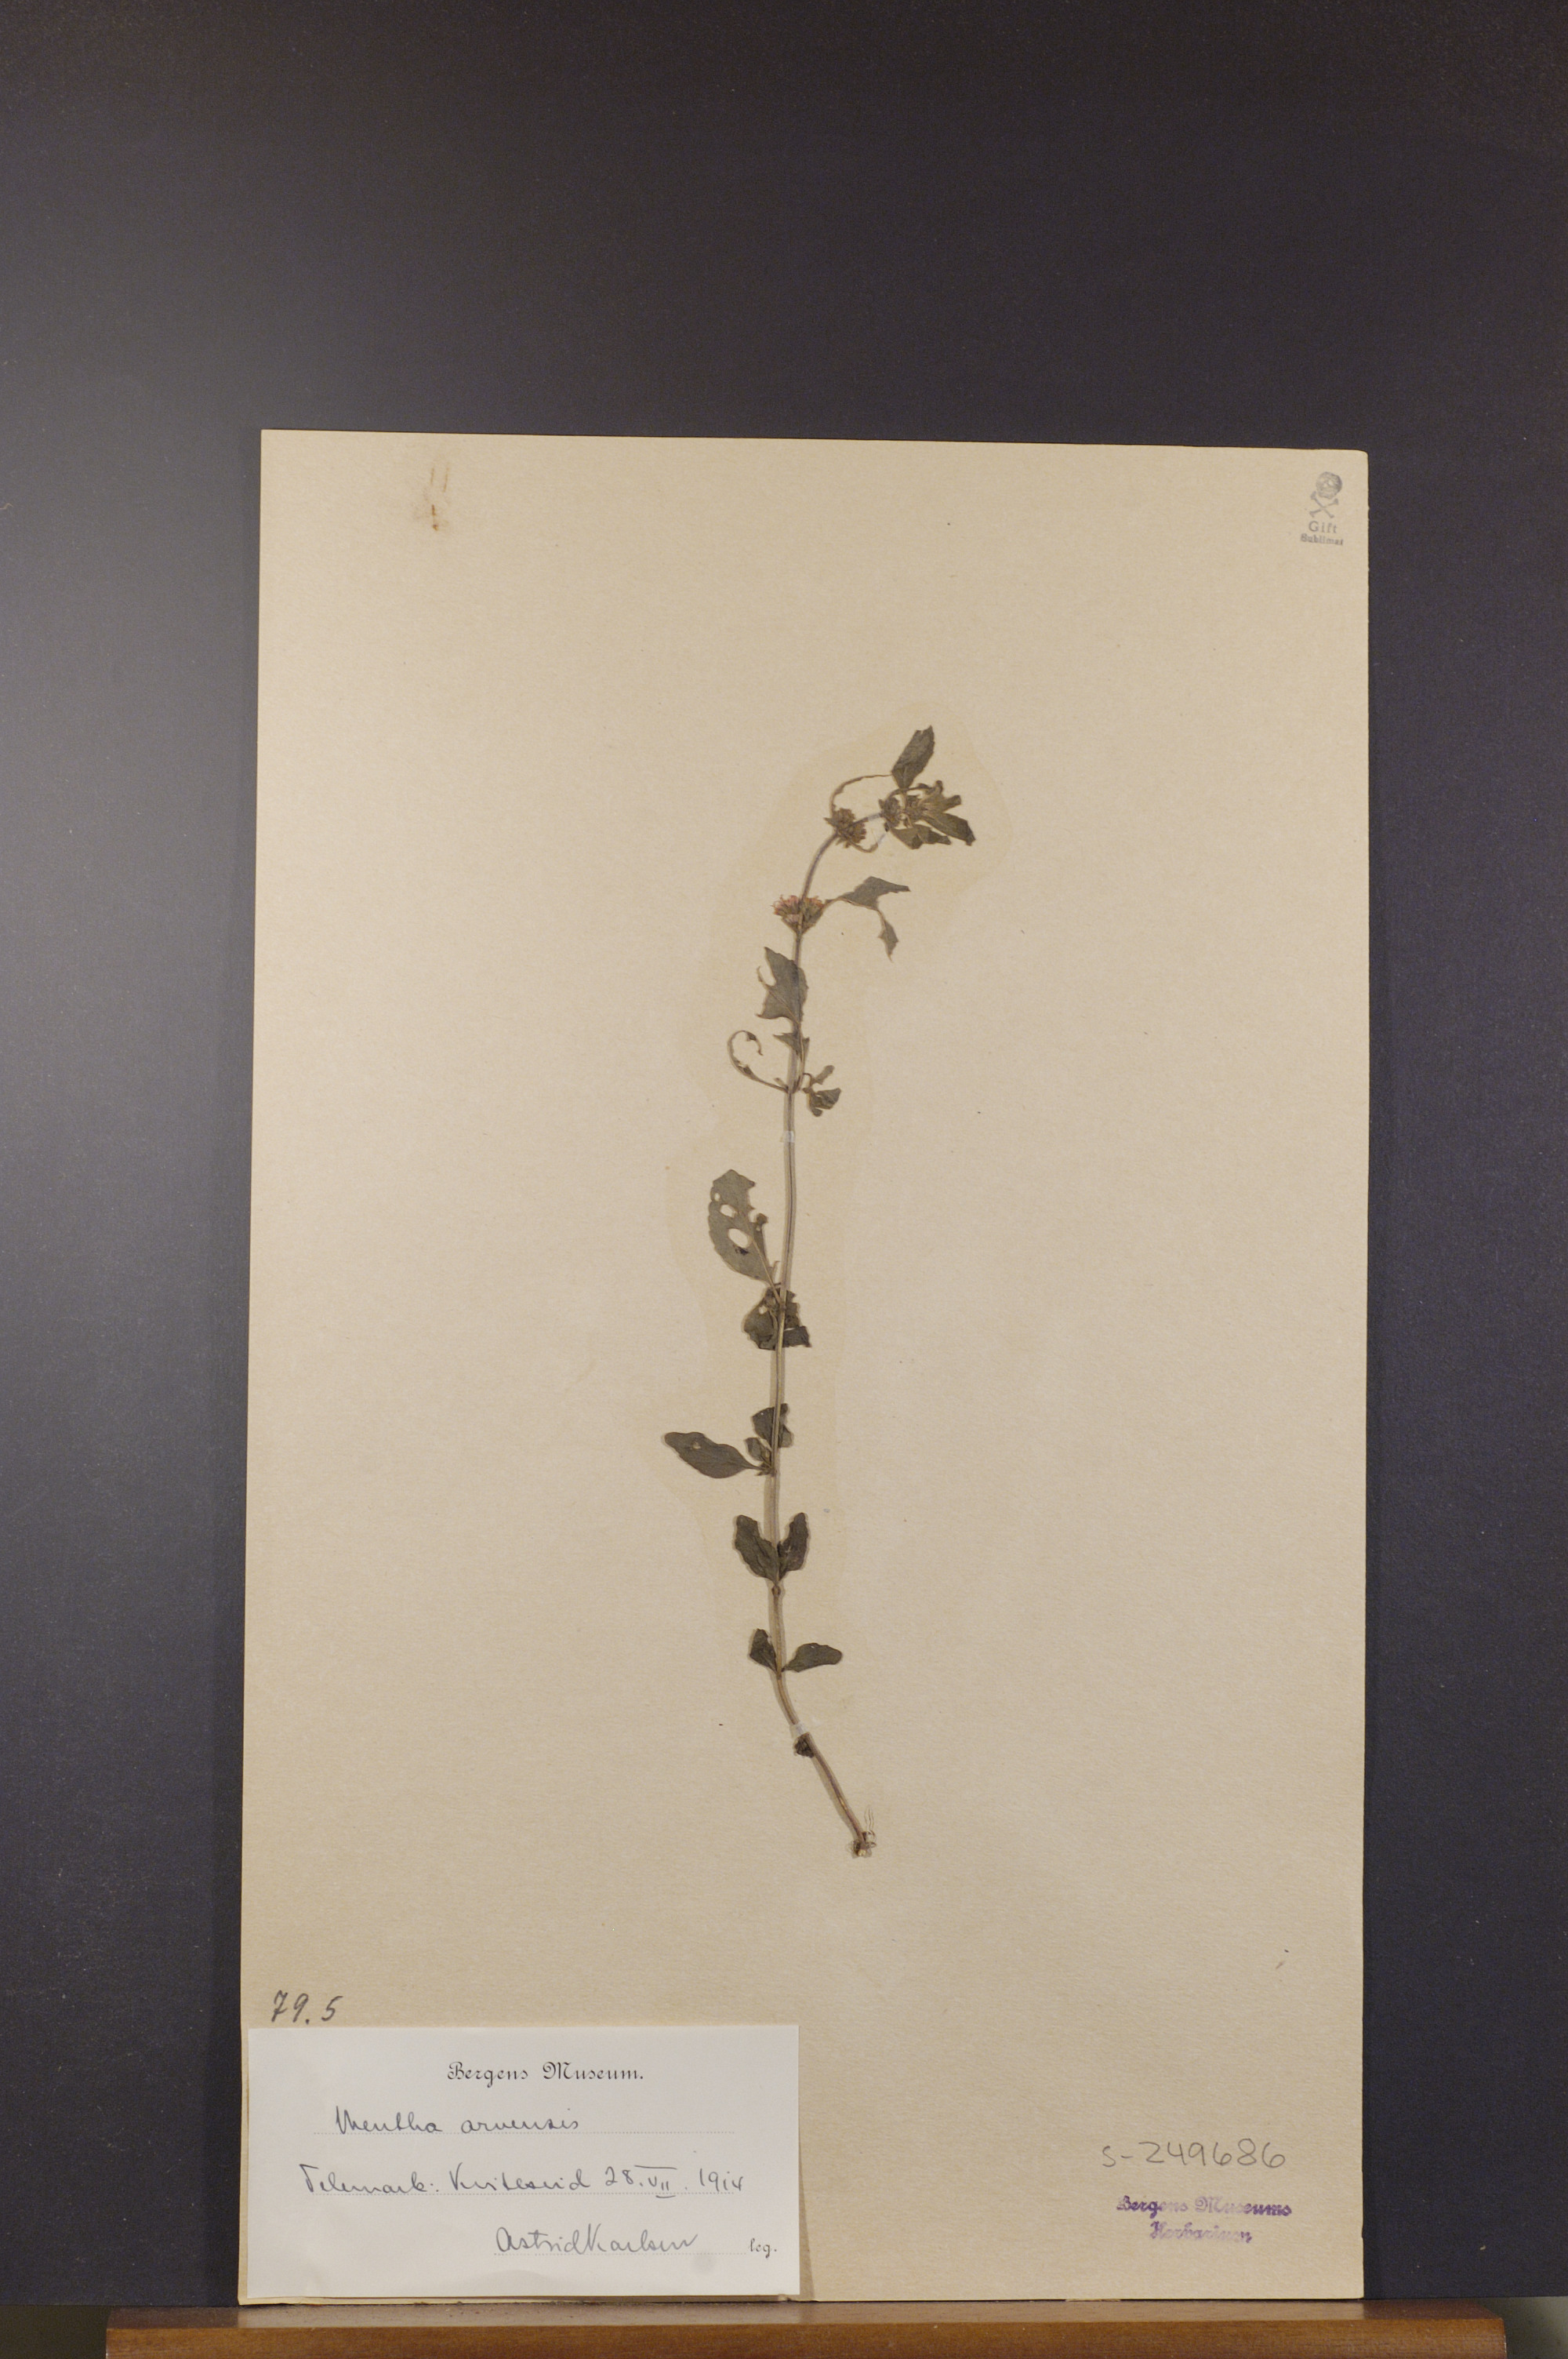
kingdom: Plantae
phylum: Tracheophyta
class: Magnoliopsida
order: Lamiales
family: Lamiaceae
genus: Mentha
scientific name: Mentha arvensis
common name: Corn mint
